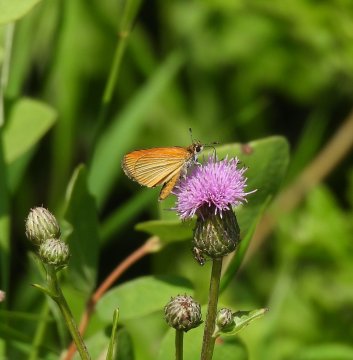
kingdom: Animalia
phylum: Arthropoda
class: Insecta
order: Lepidoptera
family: Hesperiidae
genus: Thymelicus
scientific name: Thymelicus lineola
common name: European Skipper
